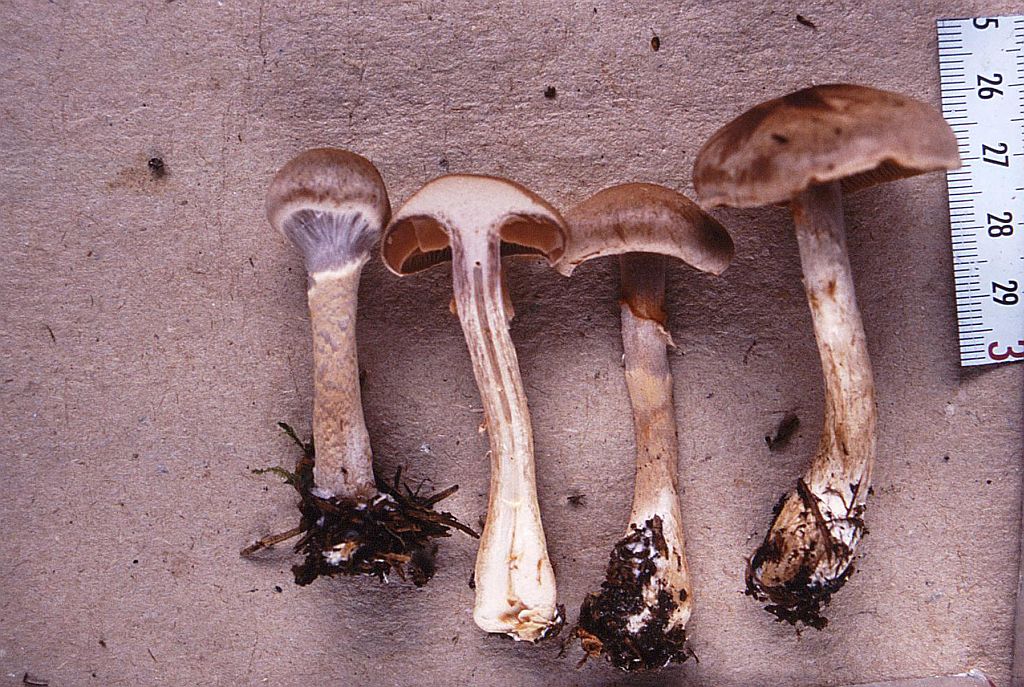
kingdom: Fungi
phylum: Basidiomycota
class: Agaricomycetes
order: Agaricales
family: Cortinariaceae
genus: Cortinarius
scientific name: Cortinarius anomalus
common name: Variable webcap
